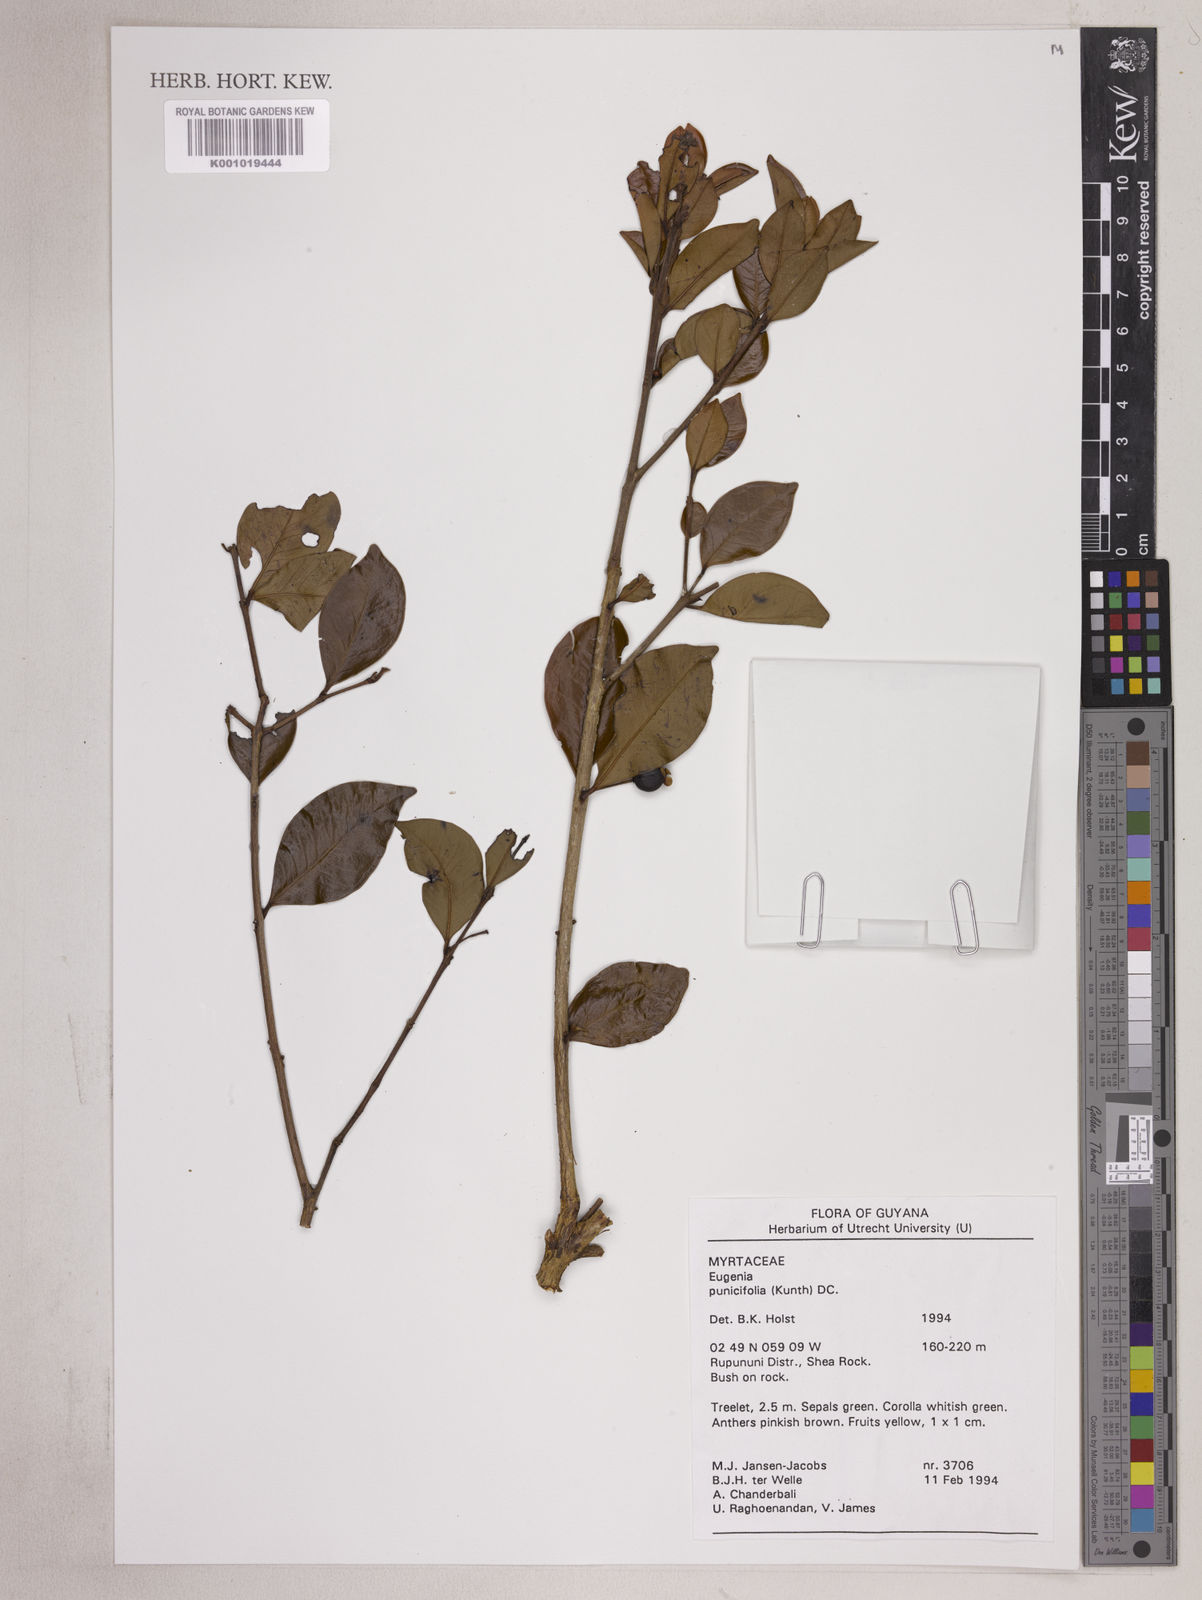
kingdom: Plantae
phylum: Tracheophyta
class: Magnoliopsida
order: Myrtales
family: Myrtaceae
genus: Eugenia
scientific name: Eugenia punicifolia
